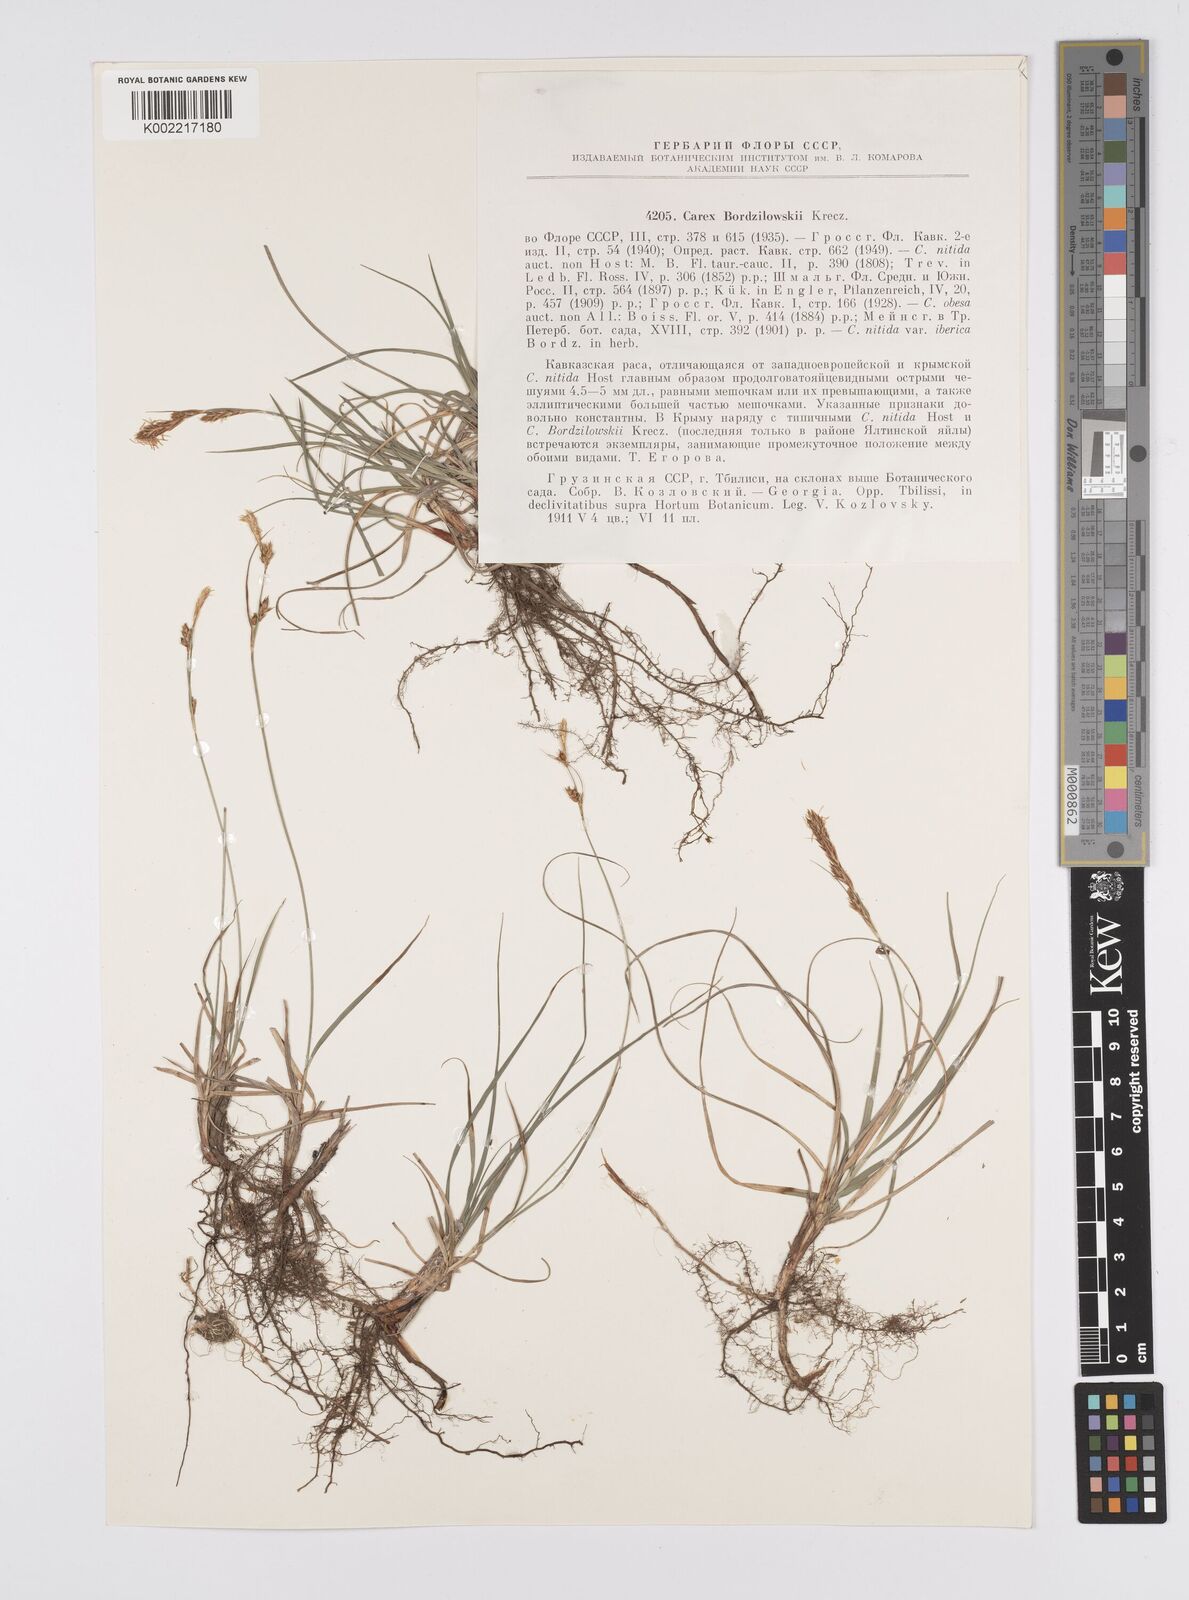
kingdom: Plantae
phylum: Tracheophyta
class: Liliopsida
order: Poales
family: Cyperaceae
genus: Carex
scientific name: Carex liparocarpos
